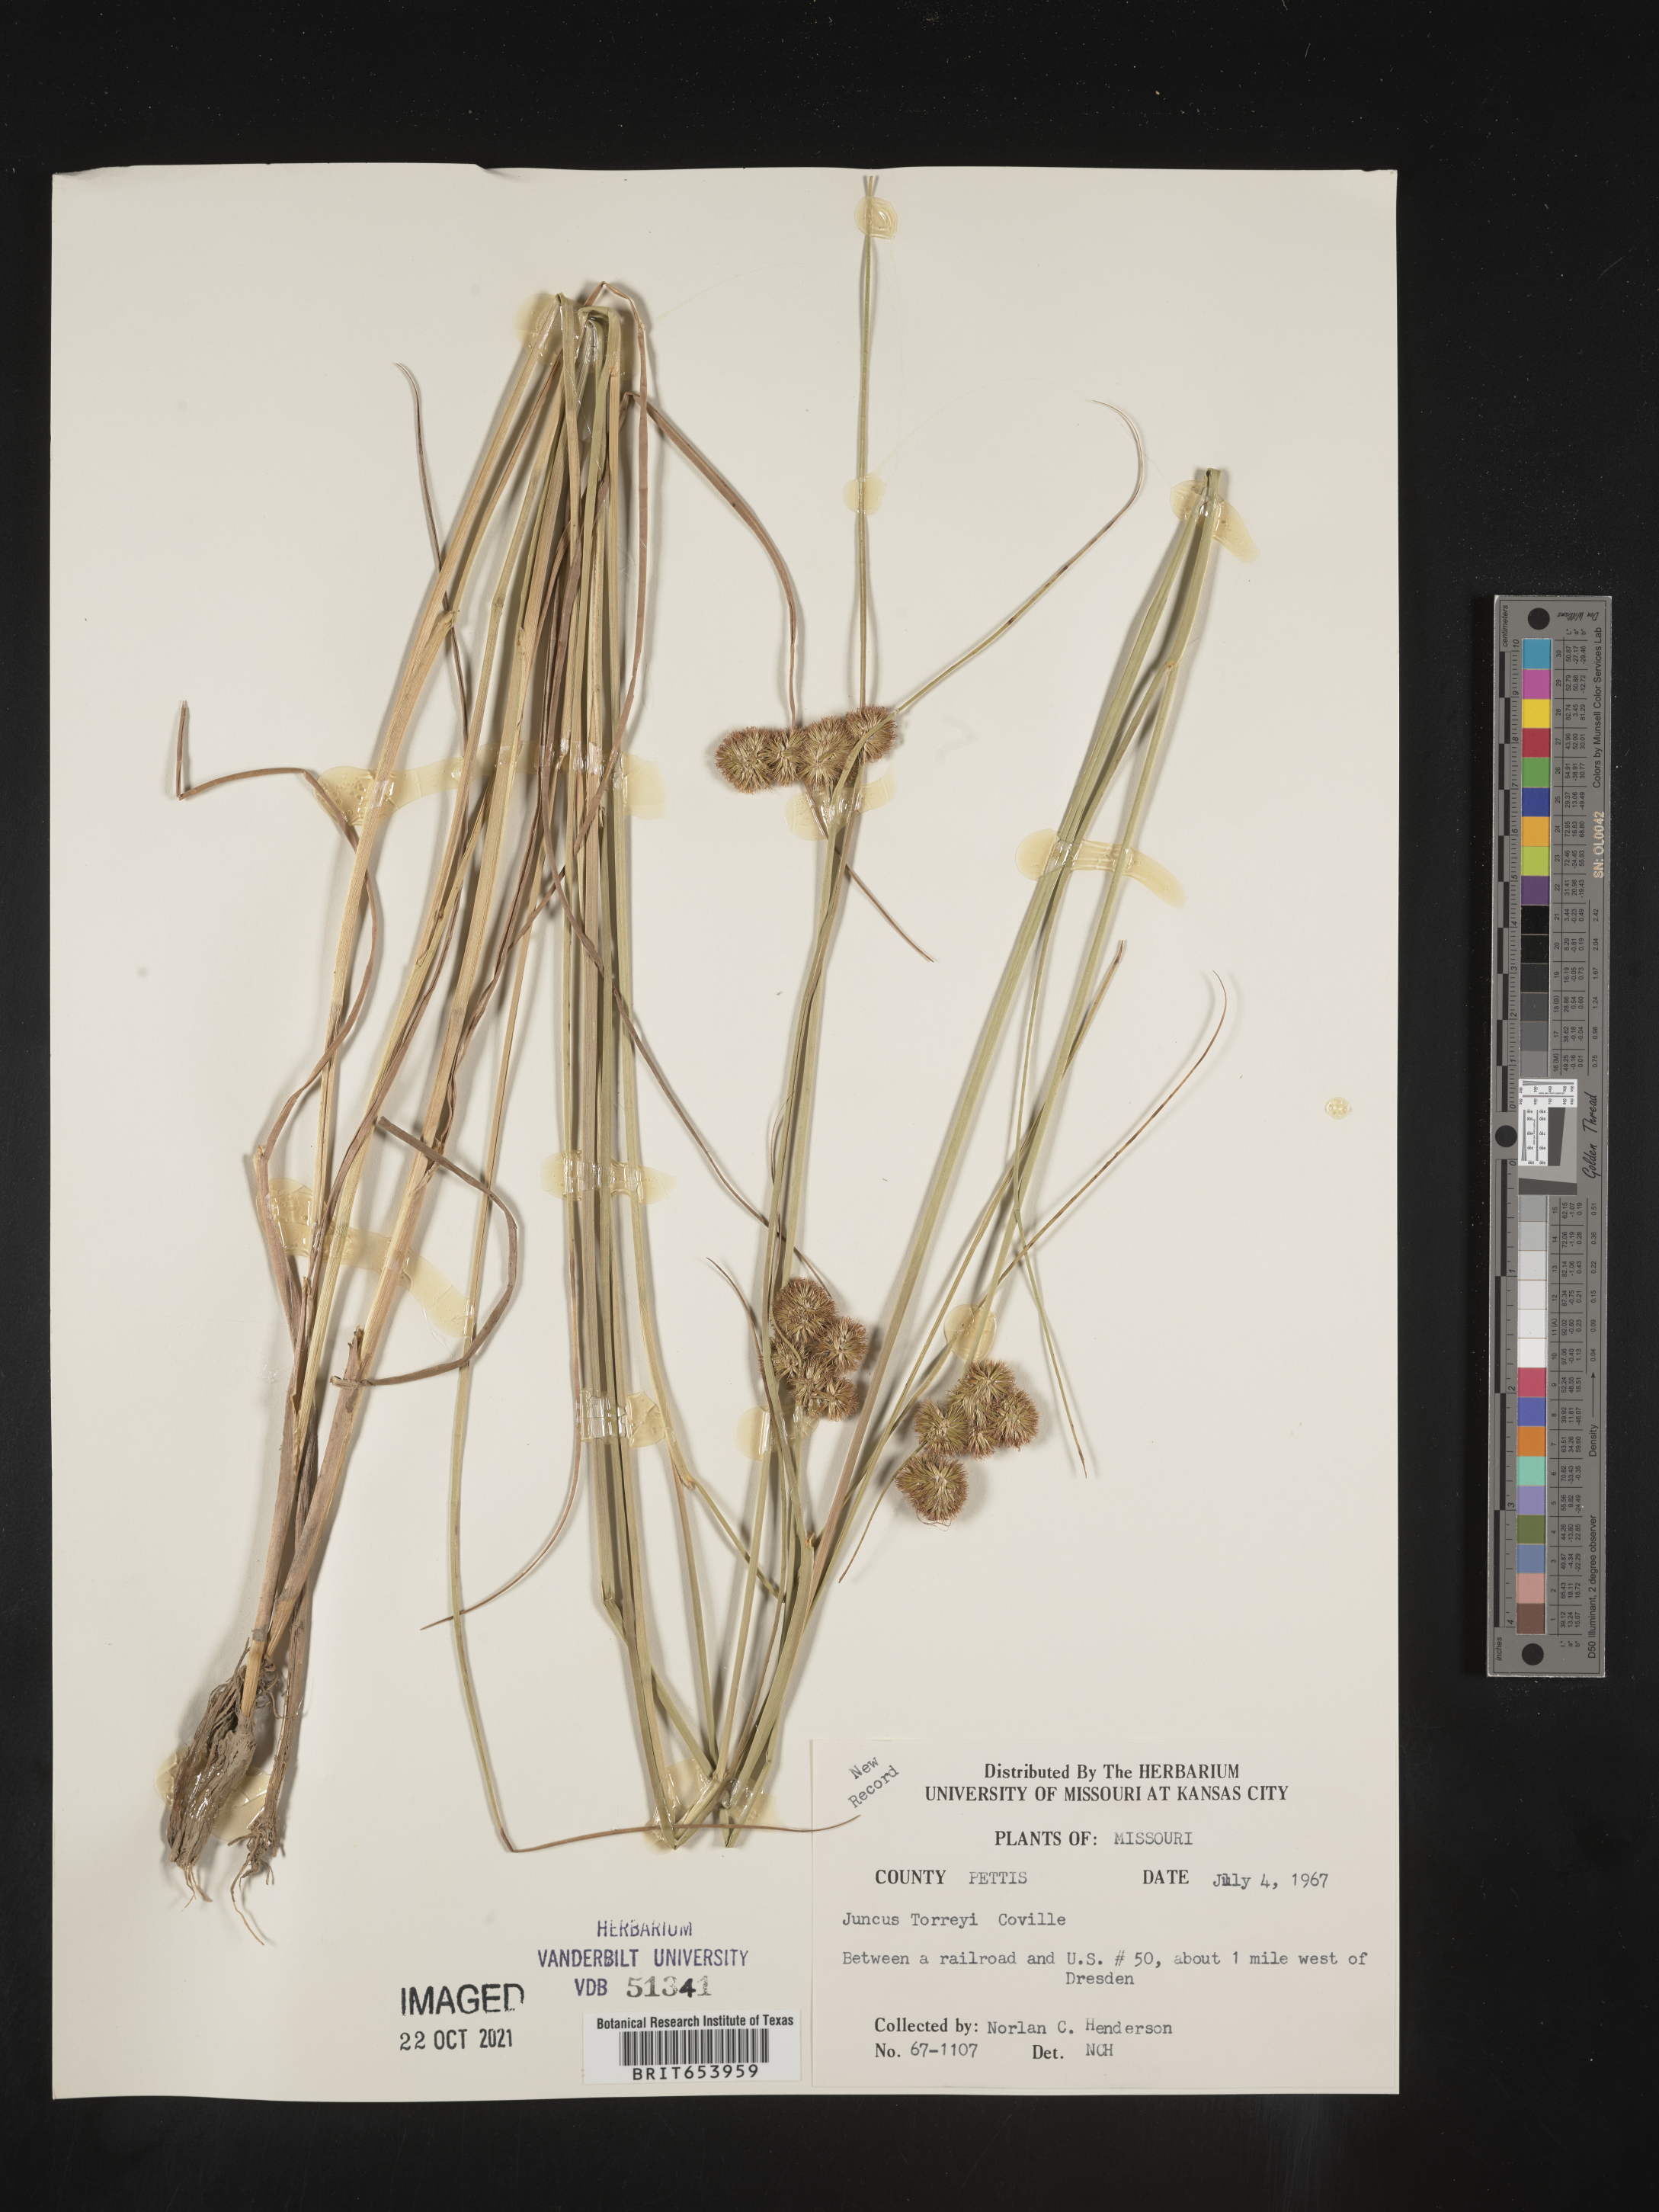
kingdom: Plantae
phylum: Tracheophyta
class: Liliopsida
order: Poales
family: Juncaceae
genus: Juncus
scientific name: Juncus torreyi
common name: Torrey's rush
